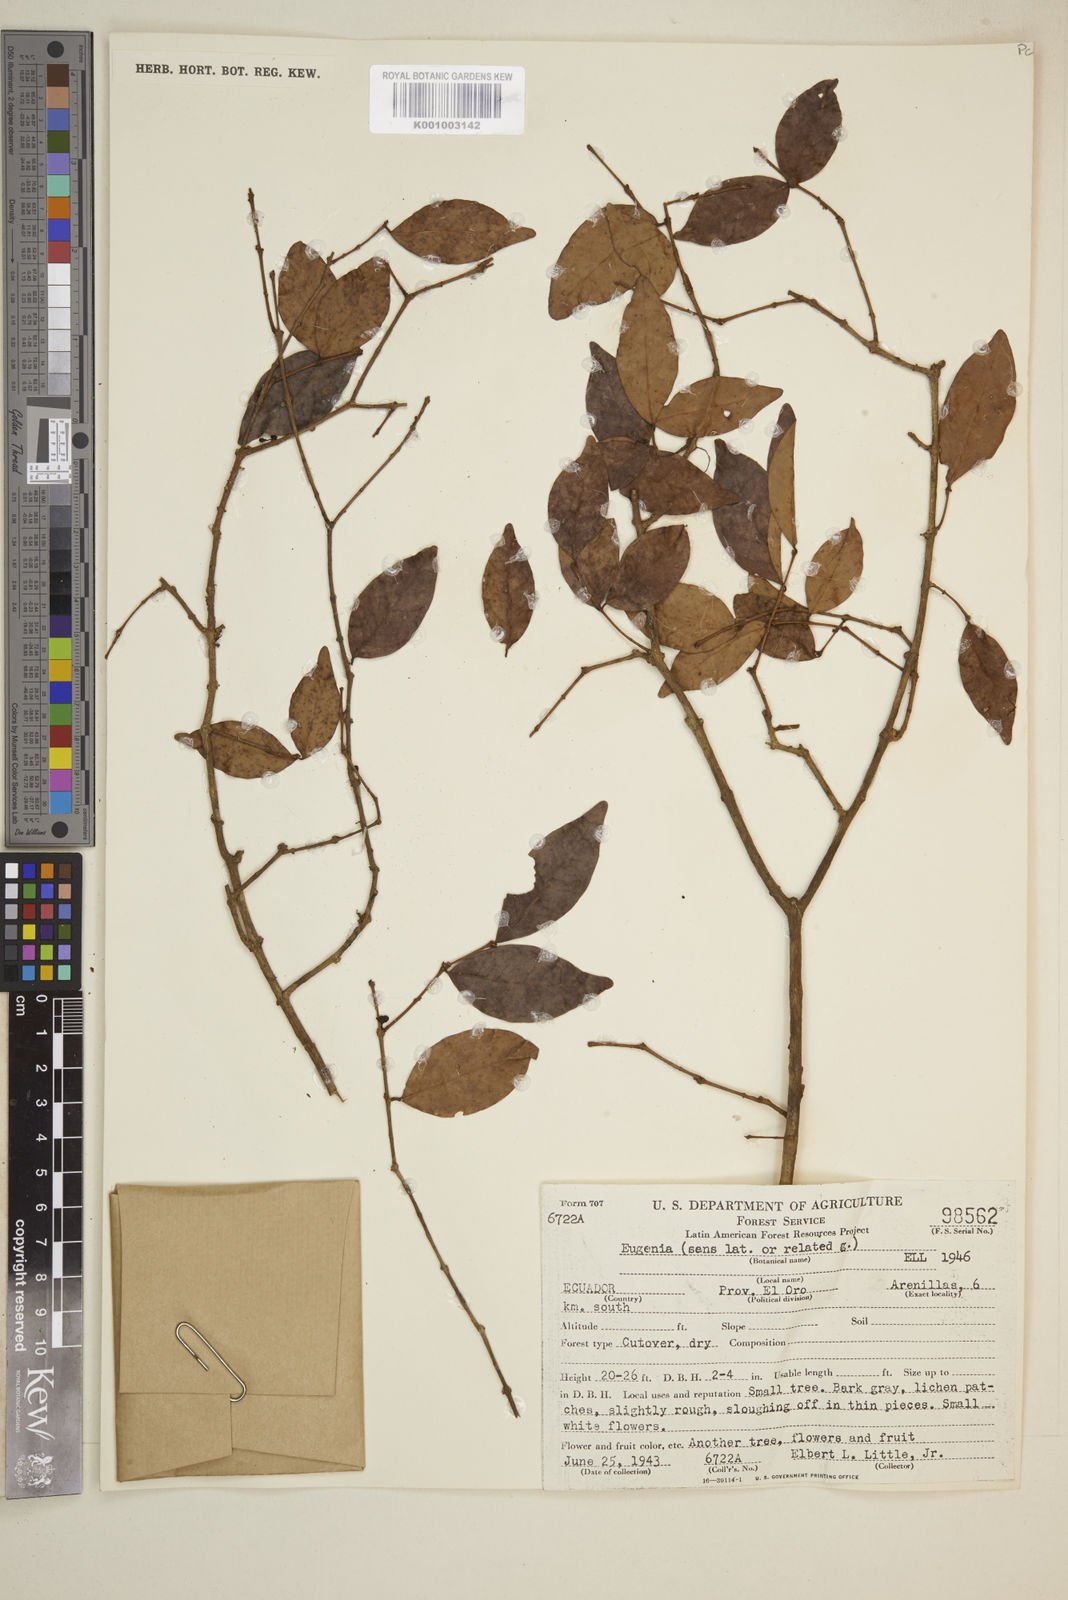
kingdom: Plantae
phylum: Tracheophyta
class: Magnoliopsida
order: Myrtales
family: Myrtaceae
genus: Eugenia
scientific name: Eugenia
